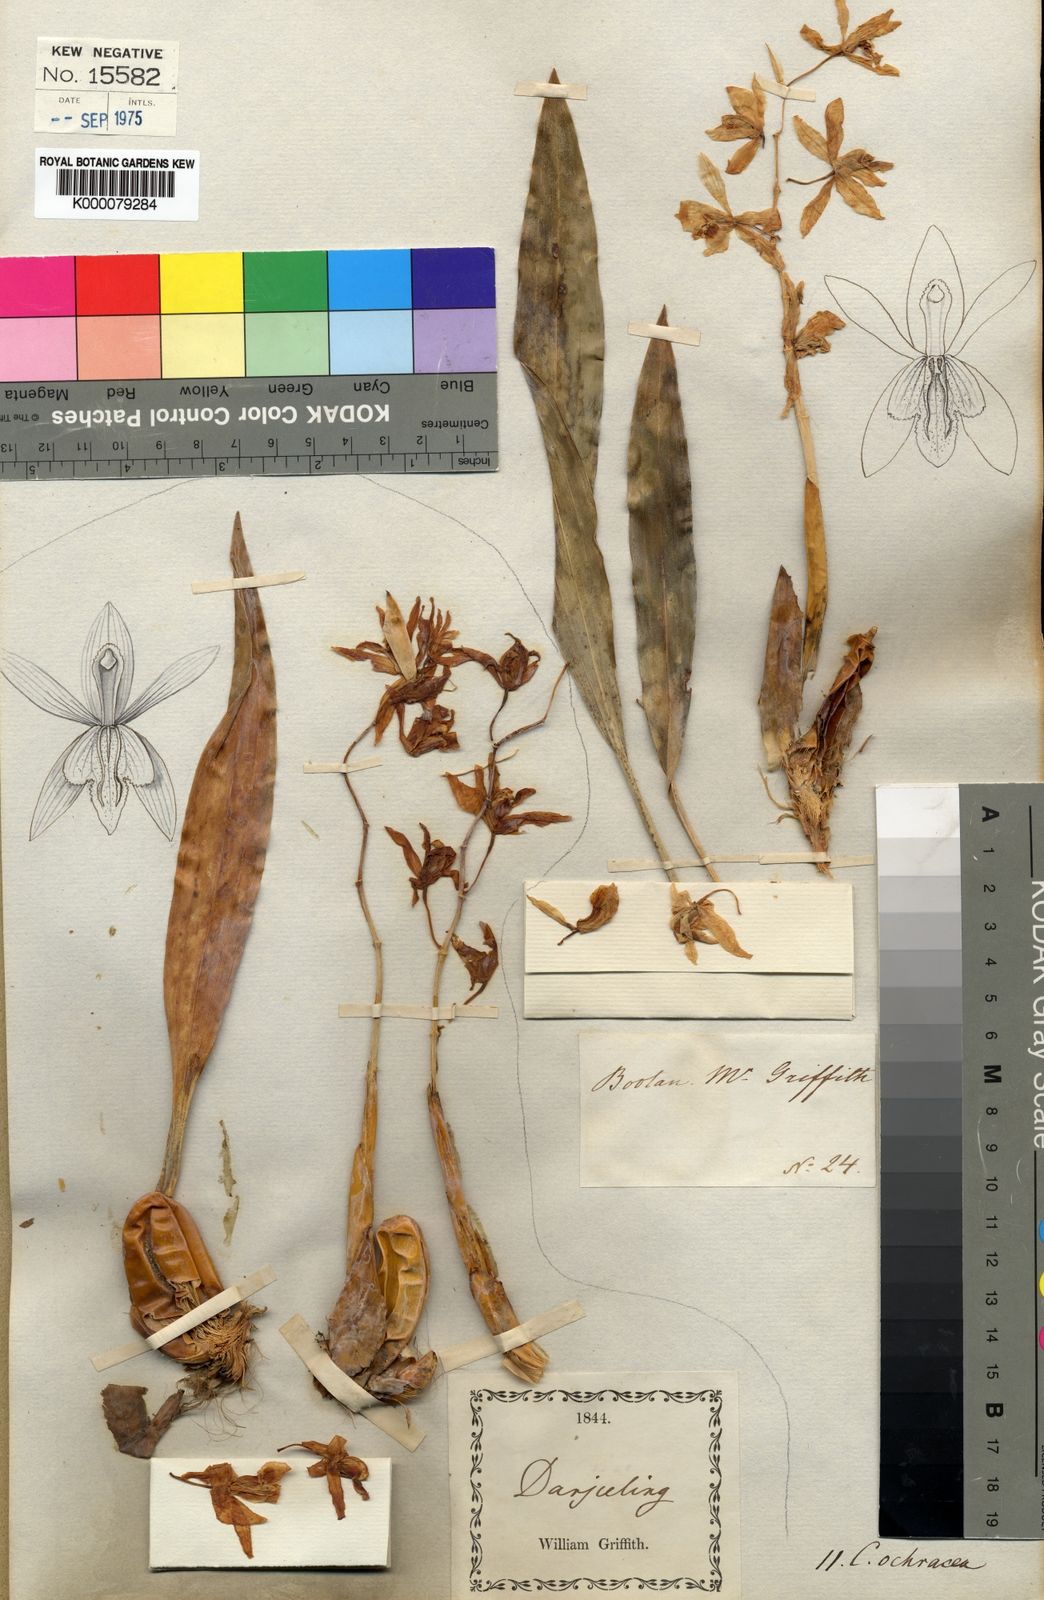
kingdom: Plantae
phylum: Tracheophyta
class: Liliopsida
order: Asparagales
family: Orchidaceae
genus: Coelogyne
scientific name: Coelogyne nitida
